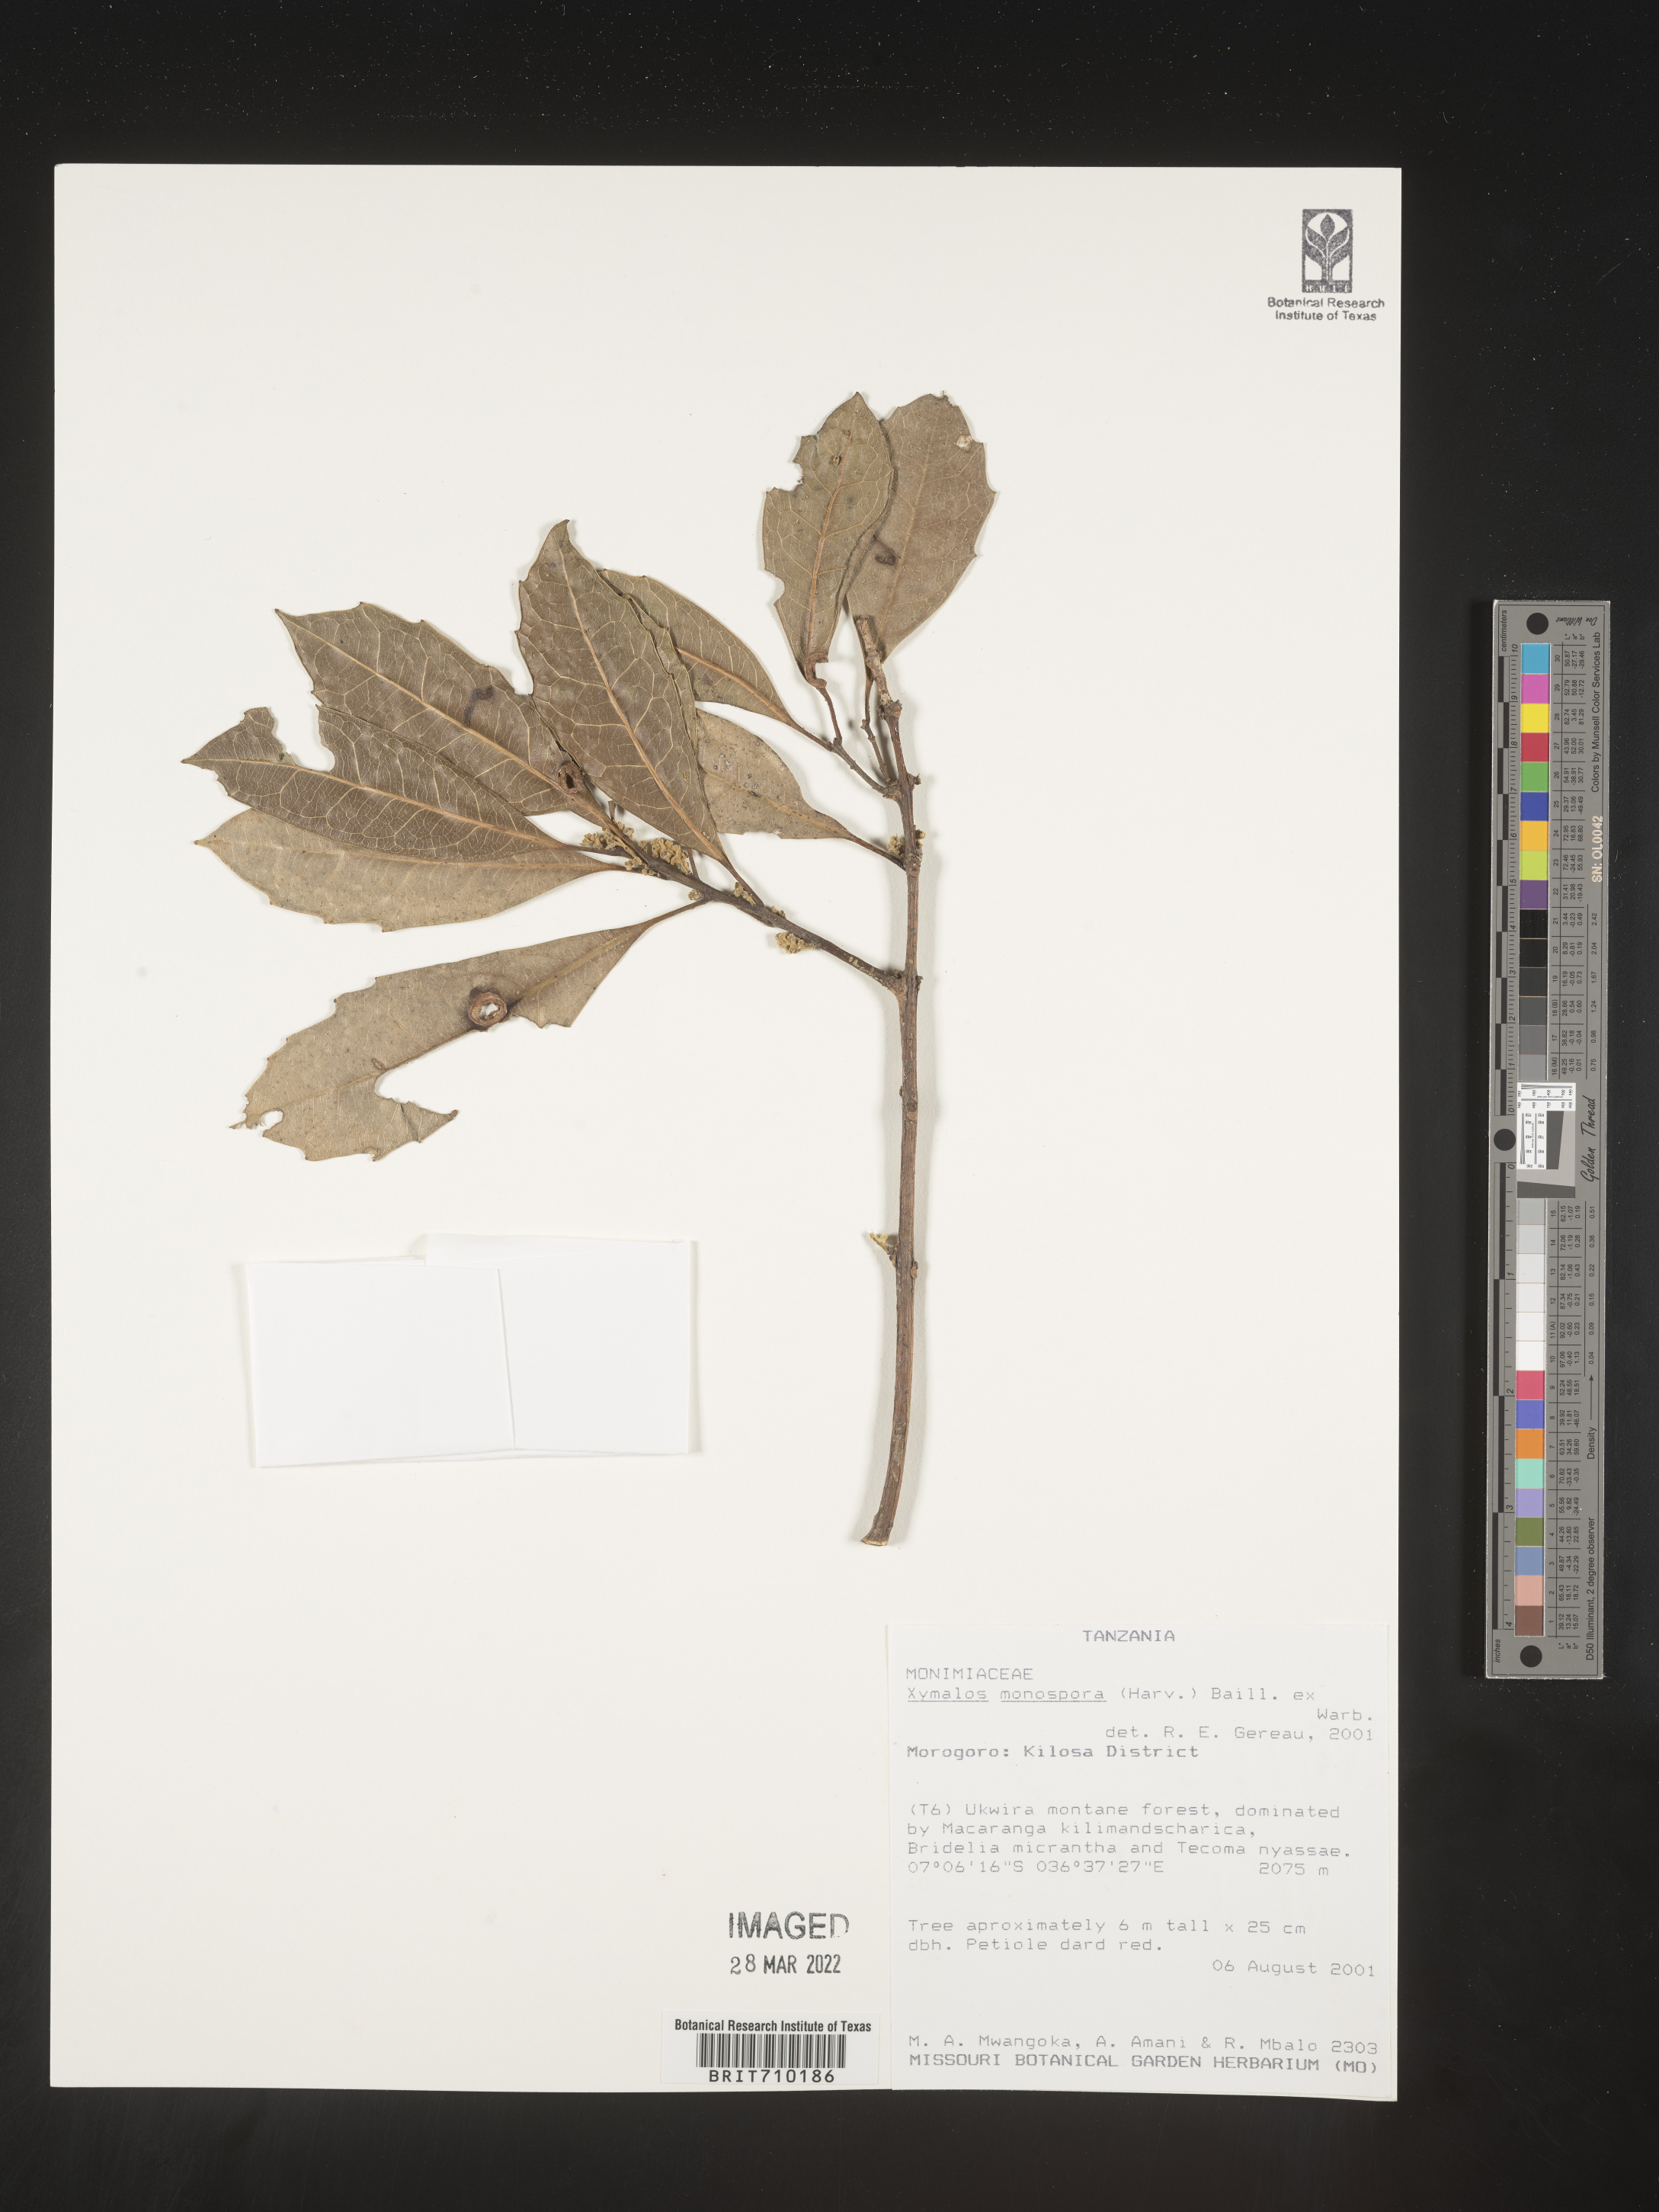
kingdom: Plantae
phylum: Tracheophyta
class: Magnoliopsida
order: Laurales
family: Monimiaceae
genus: Xymalos
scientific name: Xymalos
